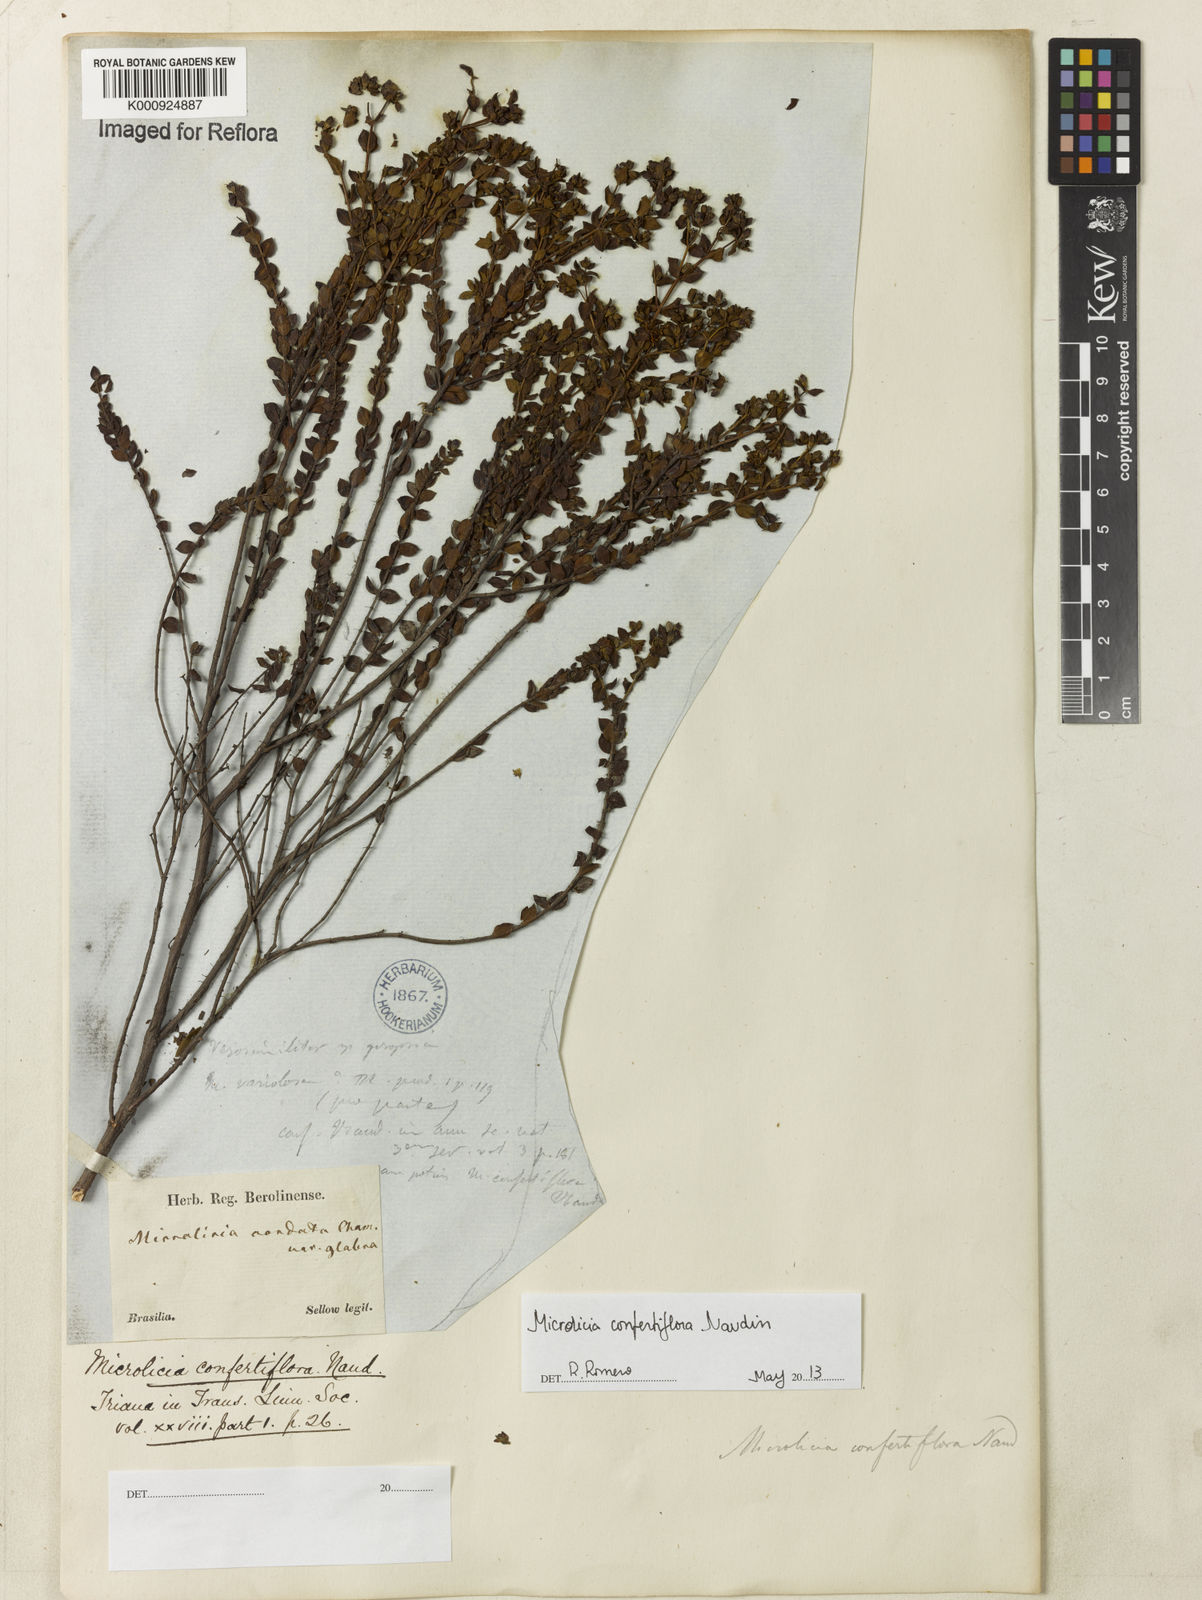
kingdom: Plantae
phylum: Tracheophyta
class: Magnoliopsida
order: Myrtales
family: Melastomataceae
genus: Microlicia
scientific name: Microlicia confertiflora
